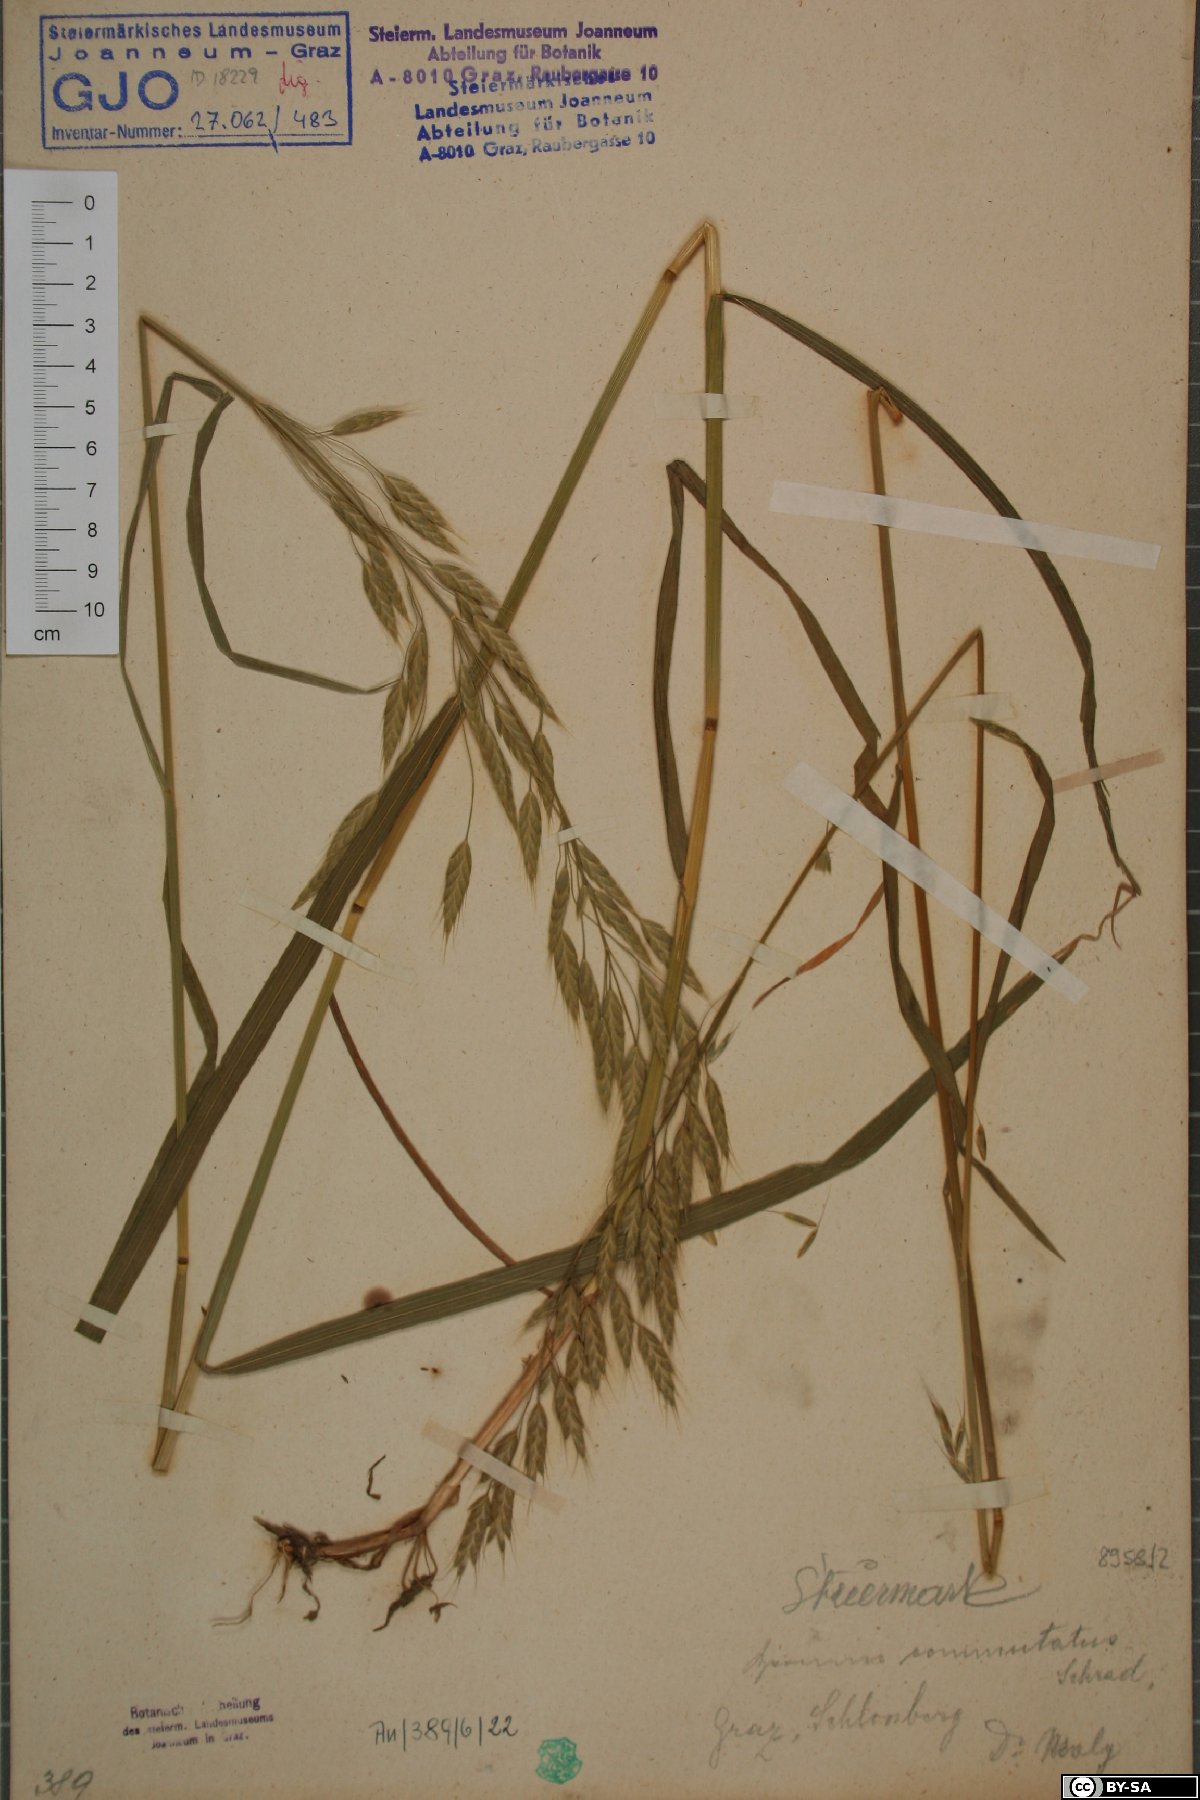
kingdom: Plantae
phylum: Tracheophyta
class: Liliopsida
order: Poales
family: Poaceae
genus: Bromus
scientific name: Bromus commutatus
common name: Meadow brome
